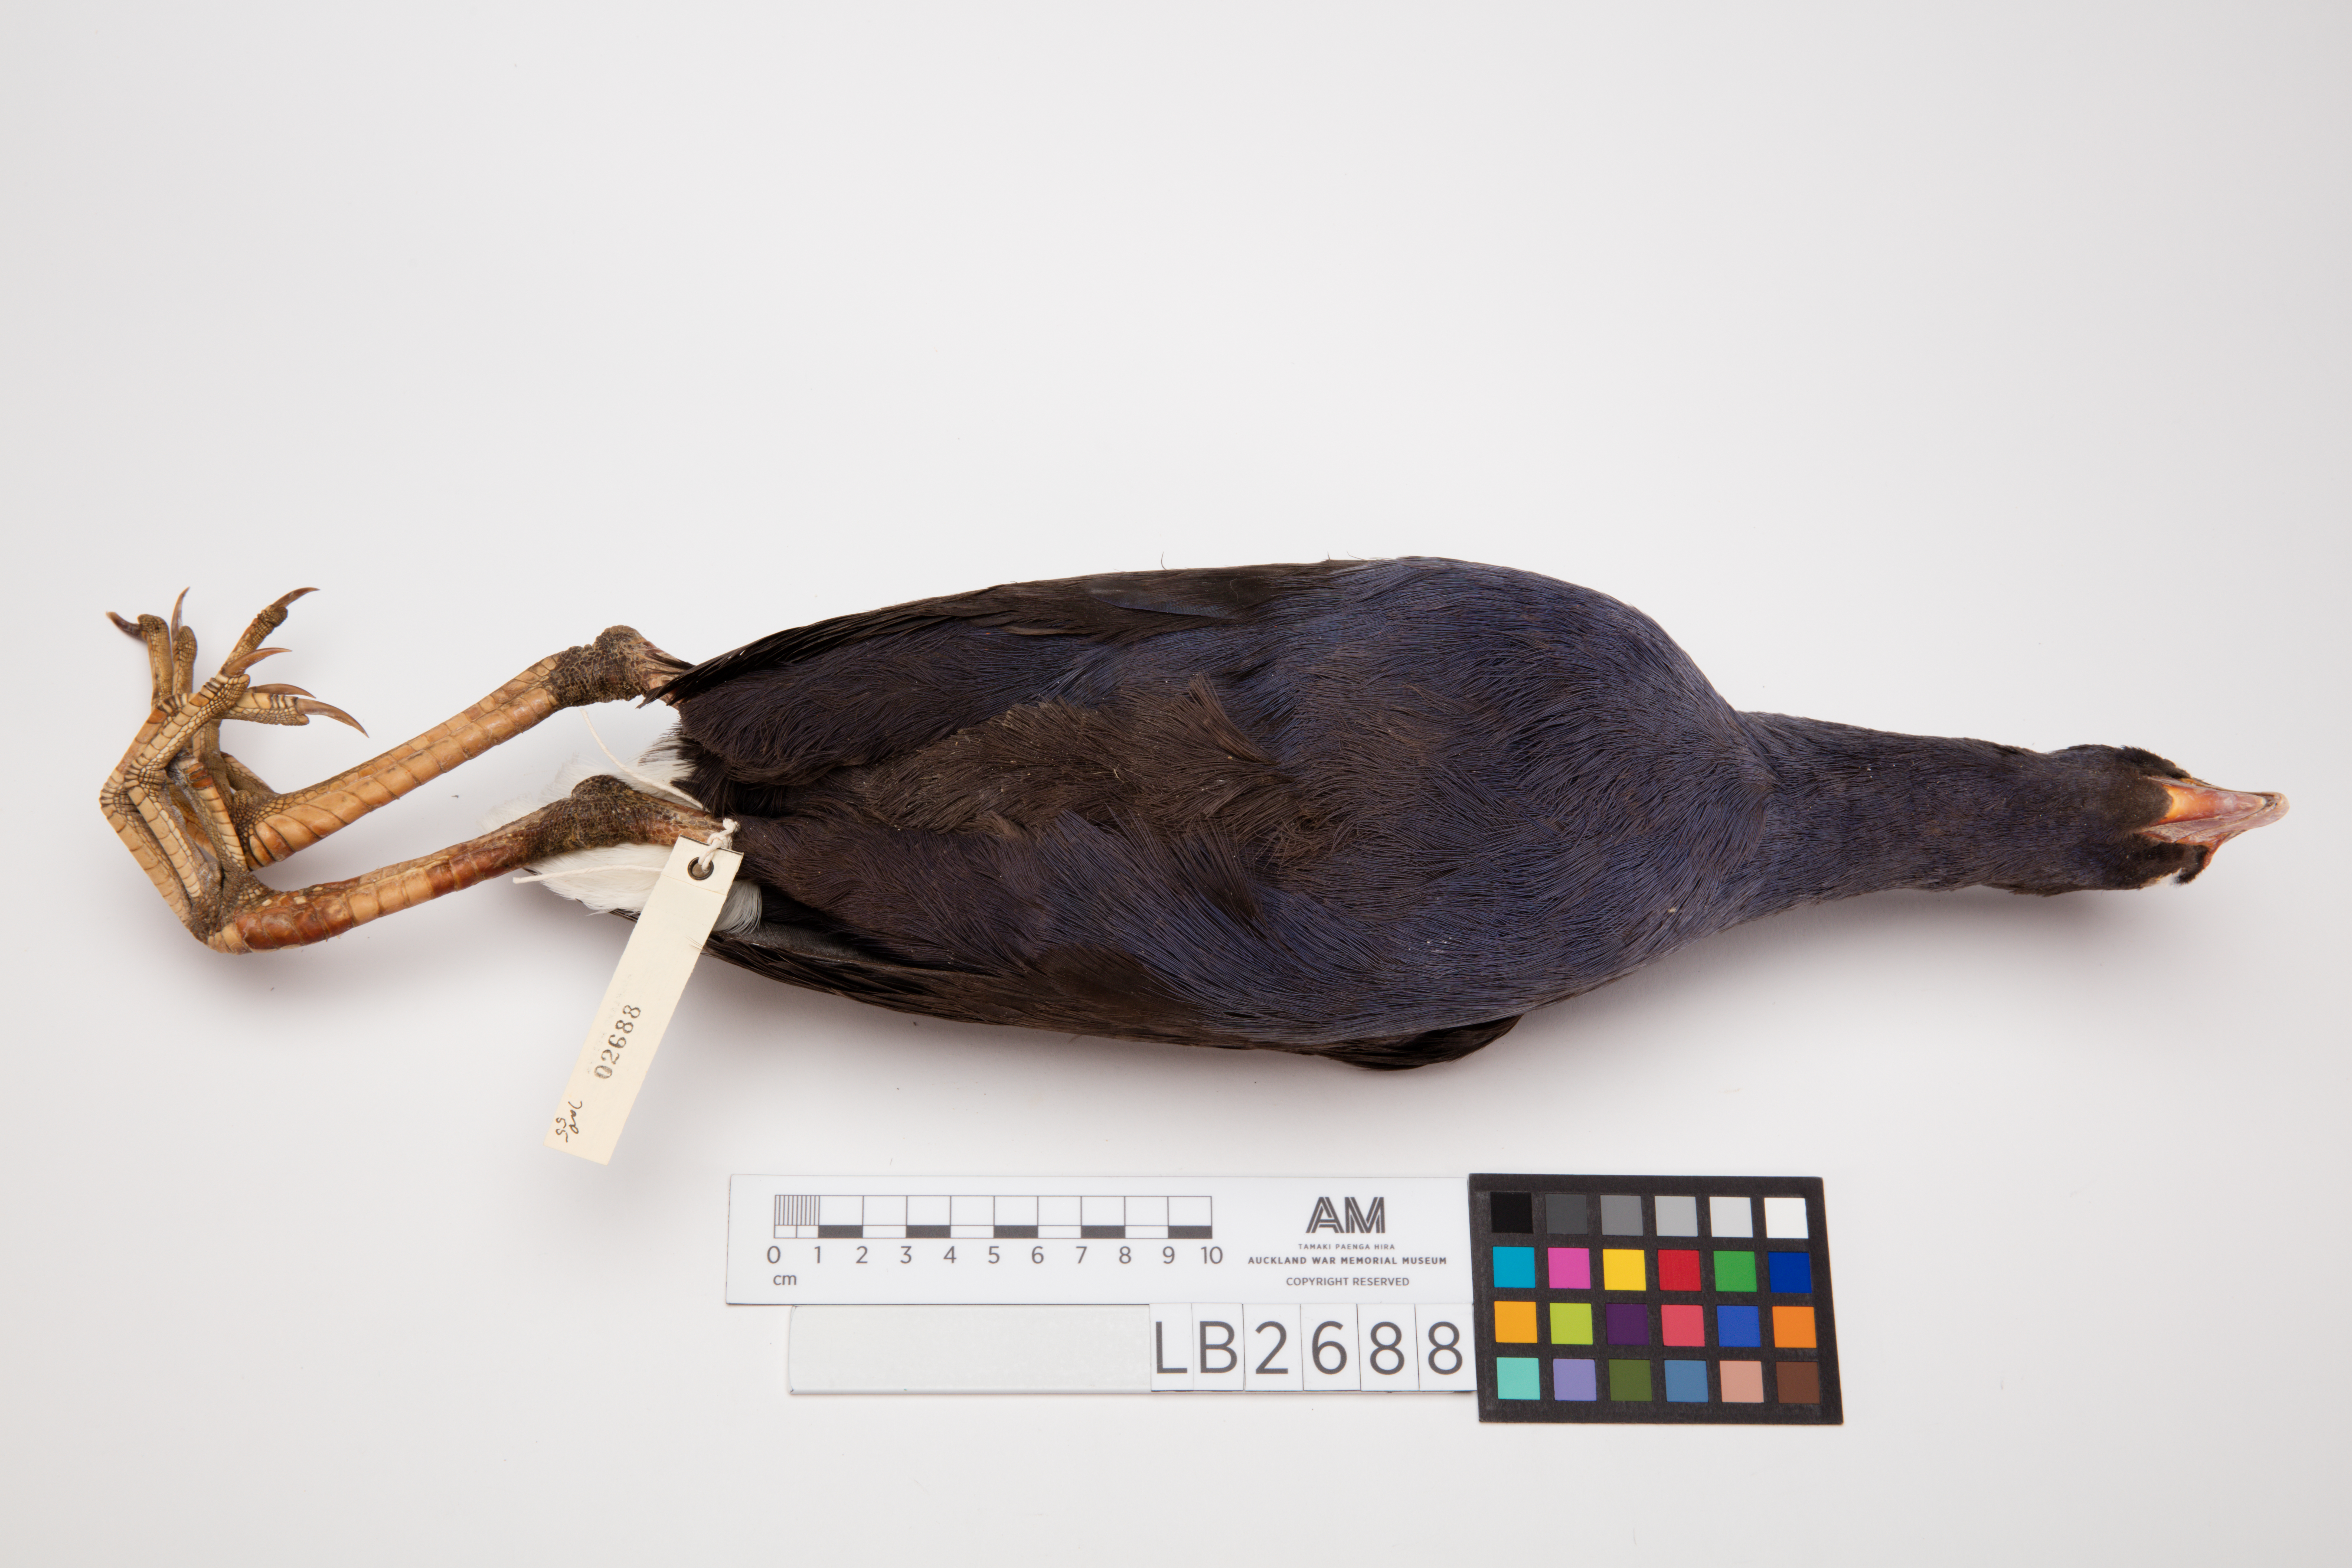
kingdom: Animalia
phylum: Chordata
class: Aves
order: Gruiformes
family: Rallidae
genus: Porphyrio
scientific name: Porphyrio melanotus
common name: Australasian swamphen
